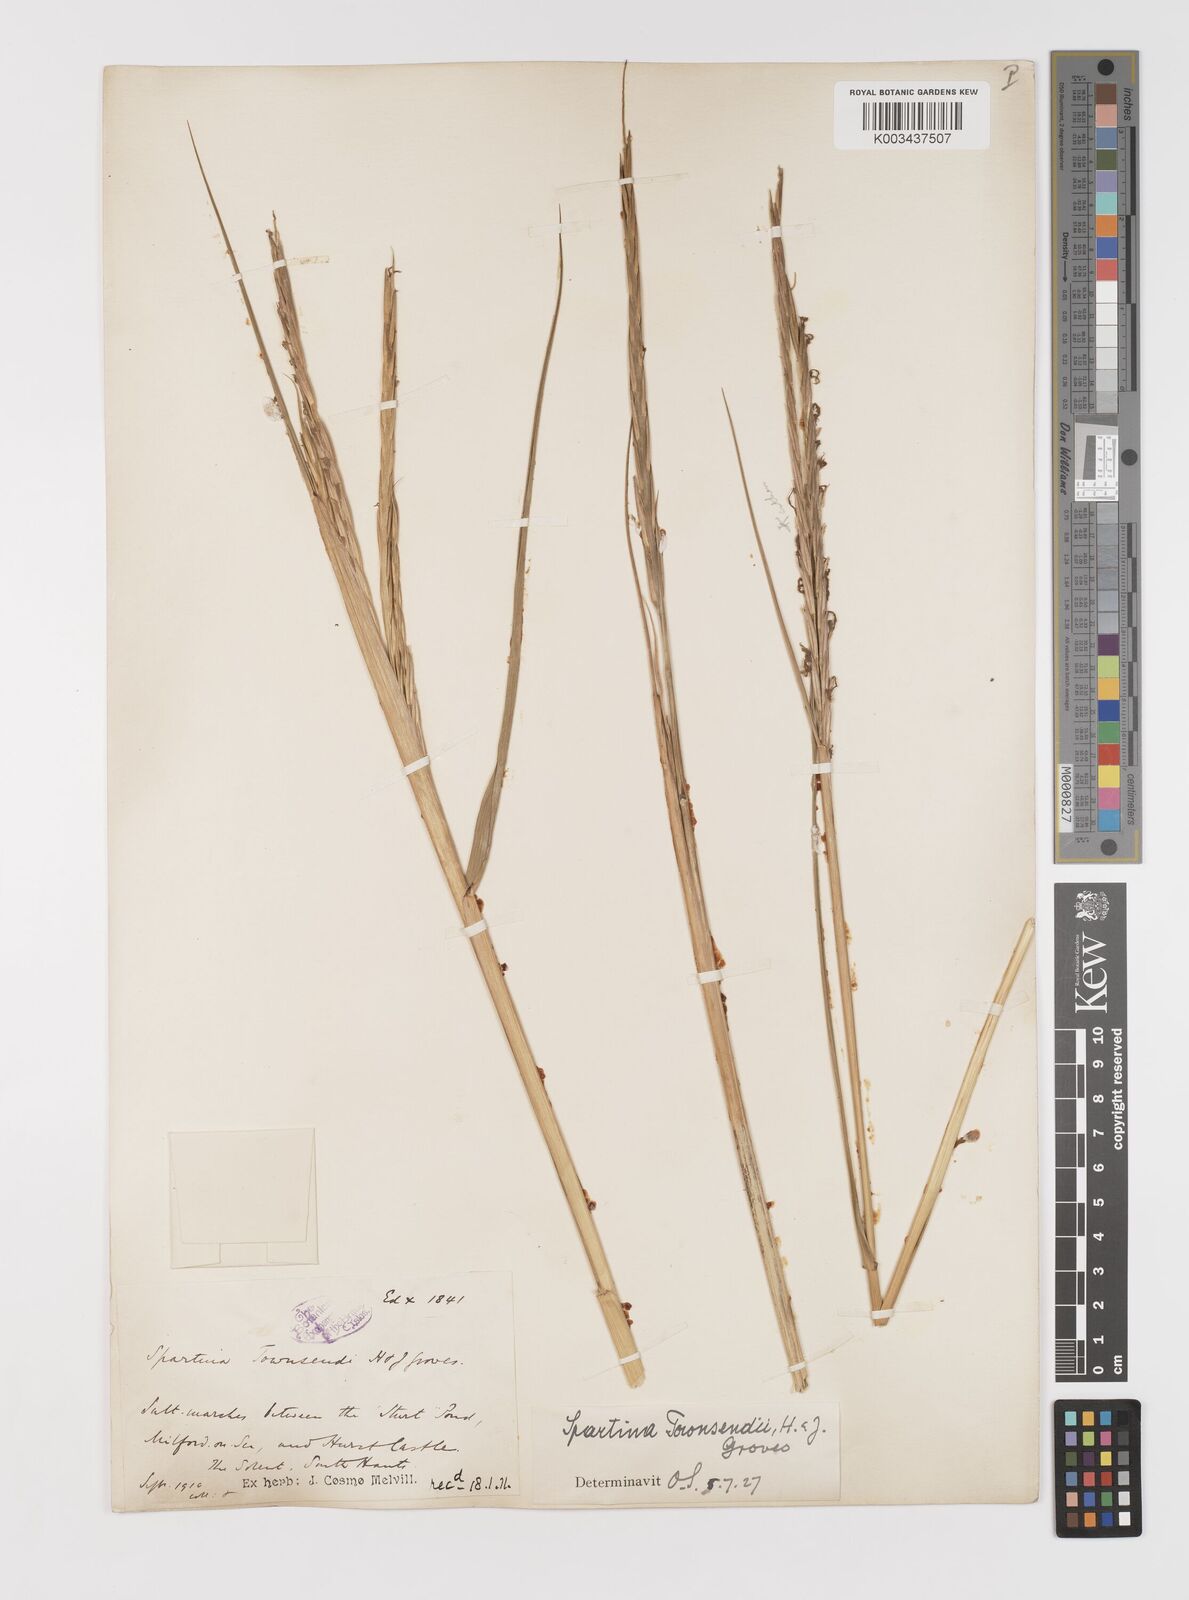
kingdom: Plantae
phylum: Tracheophyta
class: Liliopsida
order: Poales
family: Poaceae
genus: Sporobolus
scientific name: Sporobolus anglicus
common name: English cordgrass
